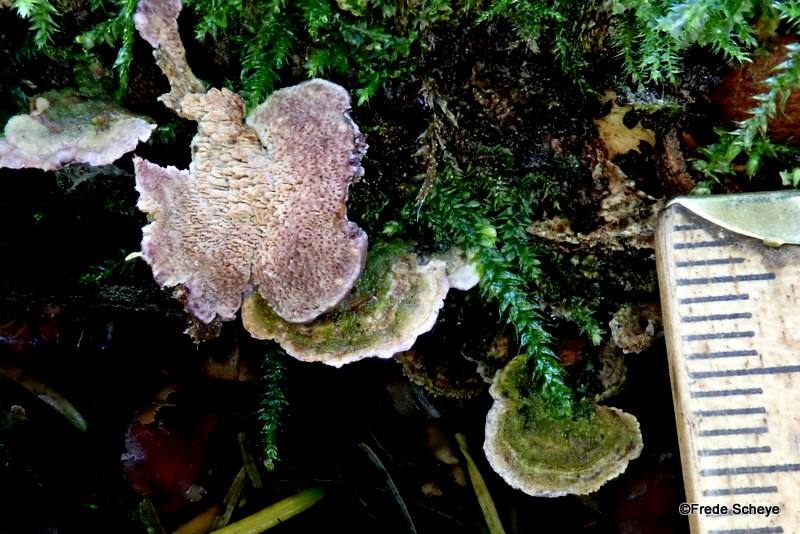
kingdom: Fungi
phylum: Basidiomycota
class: Agaricomycetes
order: Hymenochaetales
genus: Trichaptum
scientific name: Trichaptum fuscoviolaceum
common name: tandet violporesvamp
